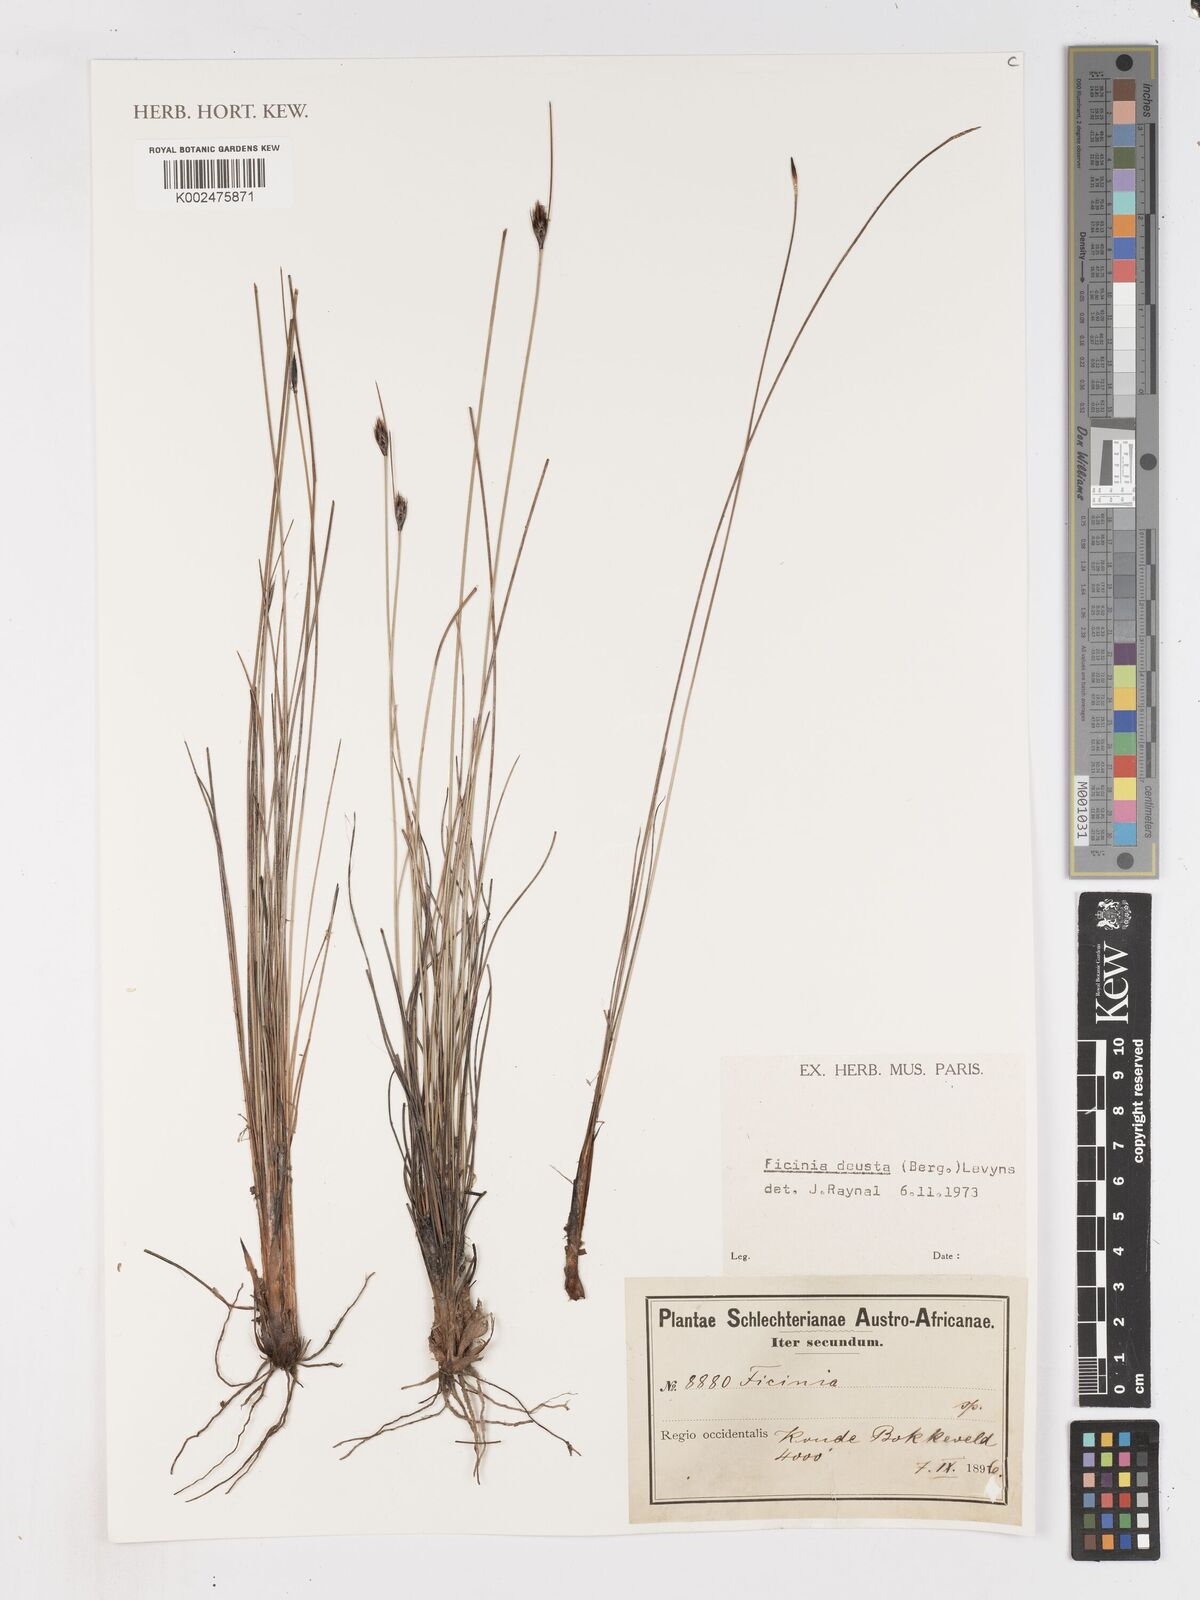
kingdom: Plantae
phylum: Tracheophyta
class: Liliopsida
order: Poales
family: Cyperaceae
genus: Ficinia
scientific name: Ficinia deusta
